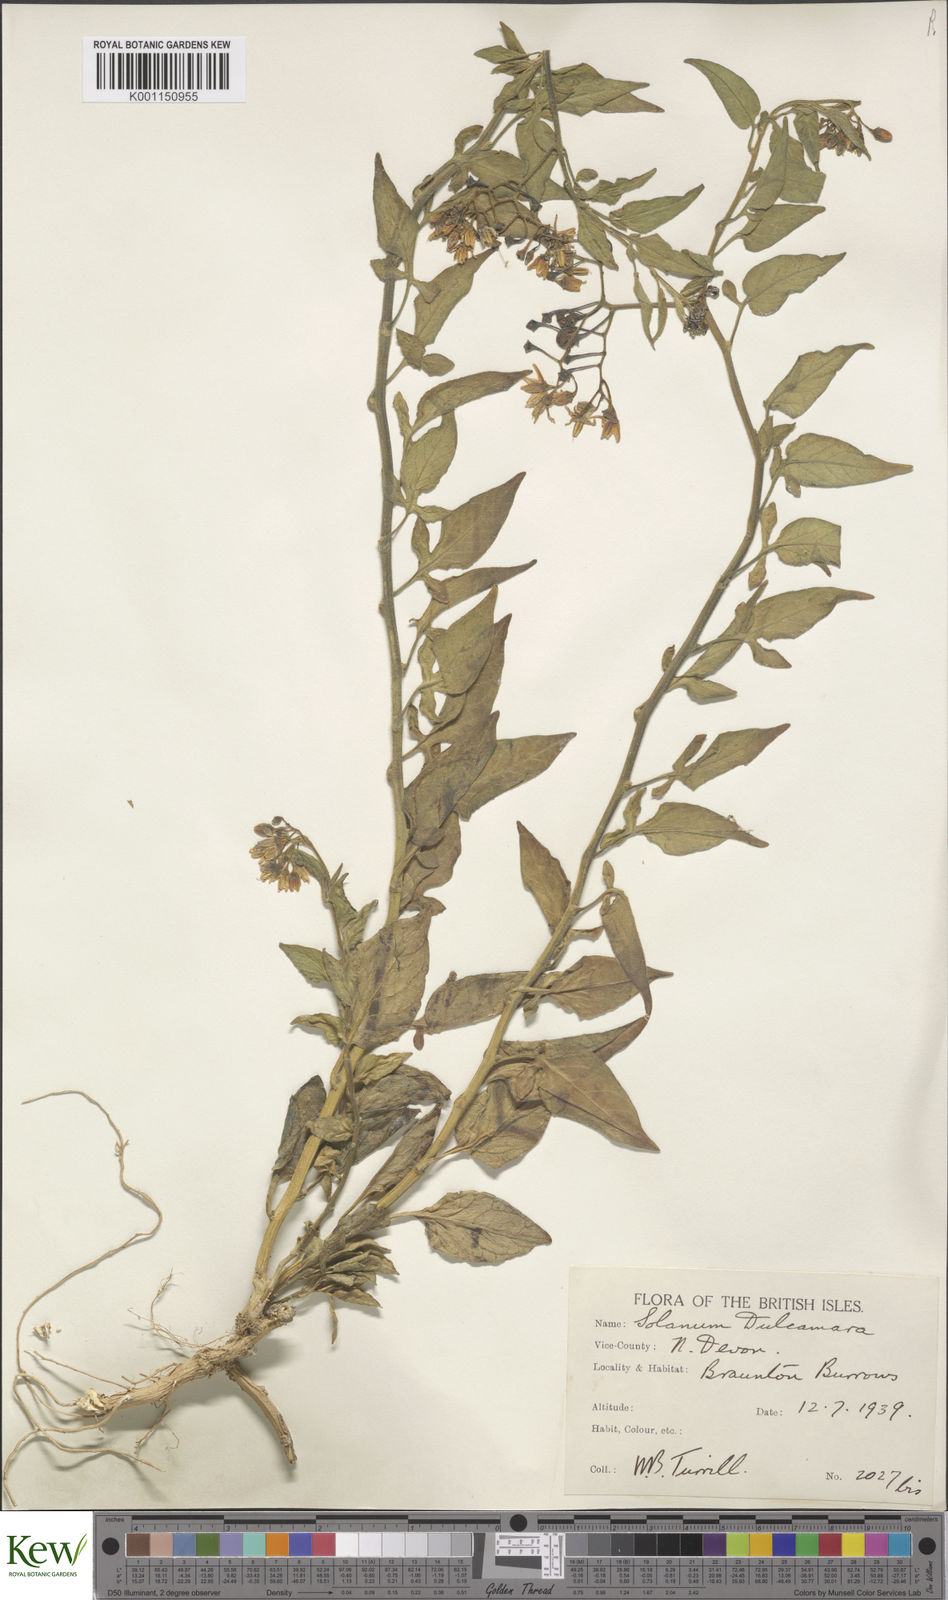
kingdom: Plantae
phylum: Tracheophyta
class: Magnoliopsida
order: Solanales
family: Solanaceae
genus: Solanum
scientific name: Solanum dulcamara
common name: Climbing nightshade
